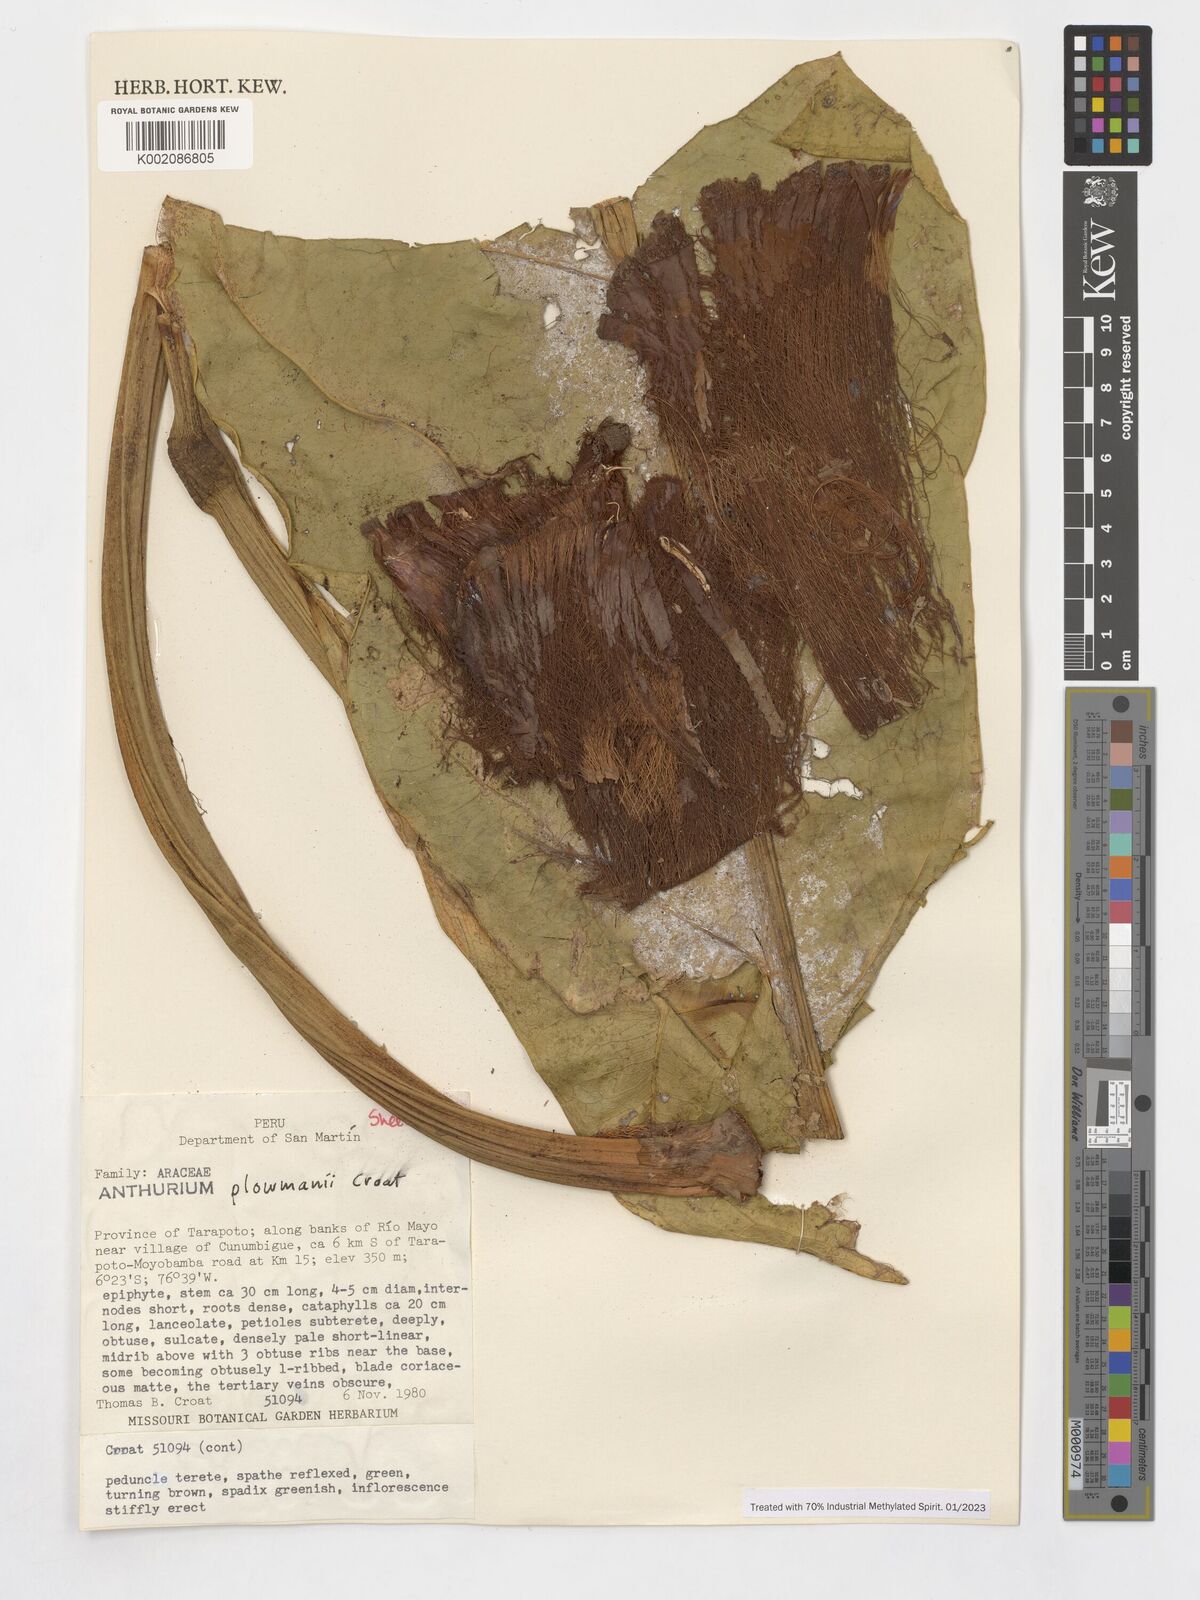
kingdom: Plantae
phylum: Tracheophyta
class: Liliopsida
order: Alismatales
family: Araceae
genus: Anthurium
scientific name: Anthurium plowmanii
